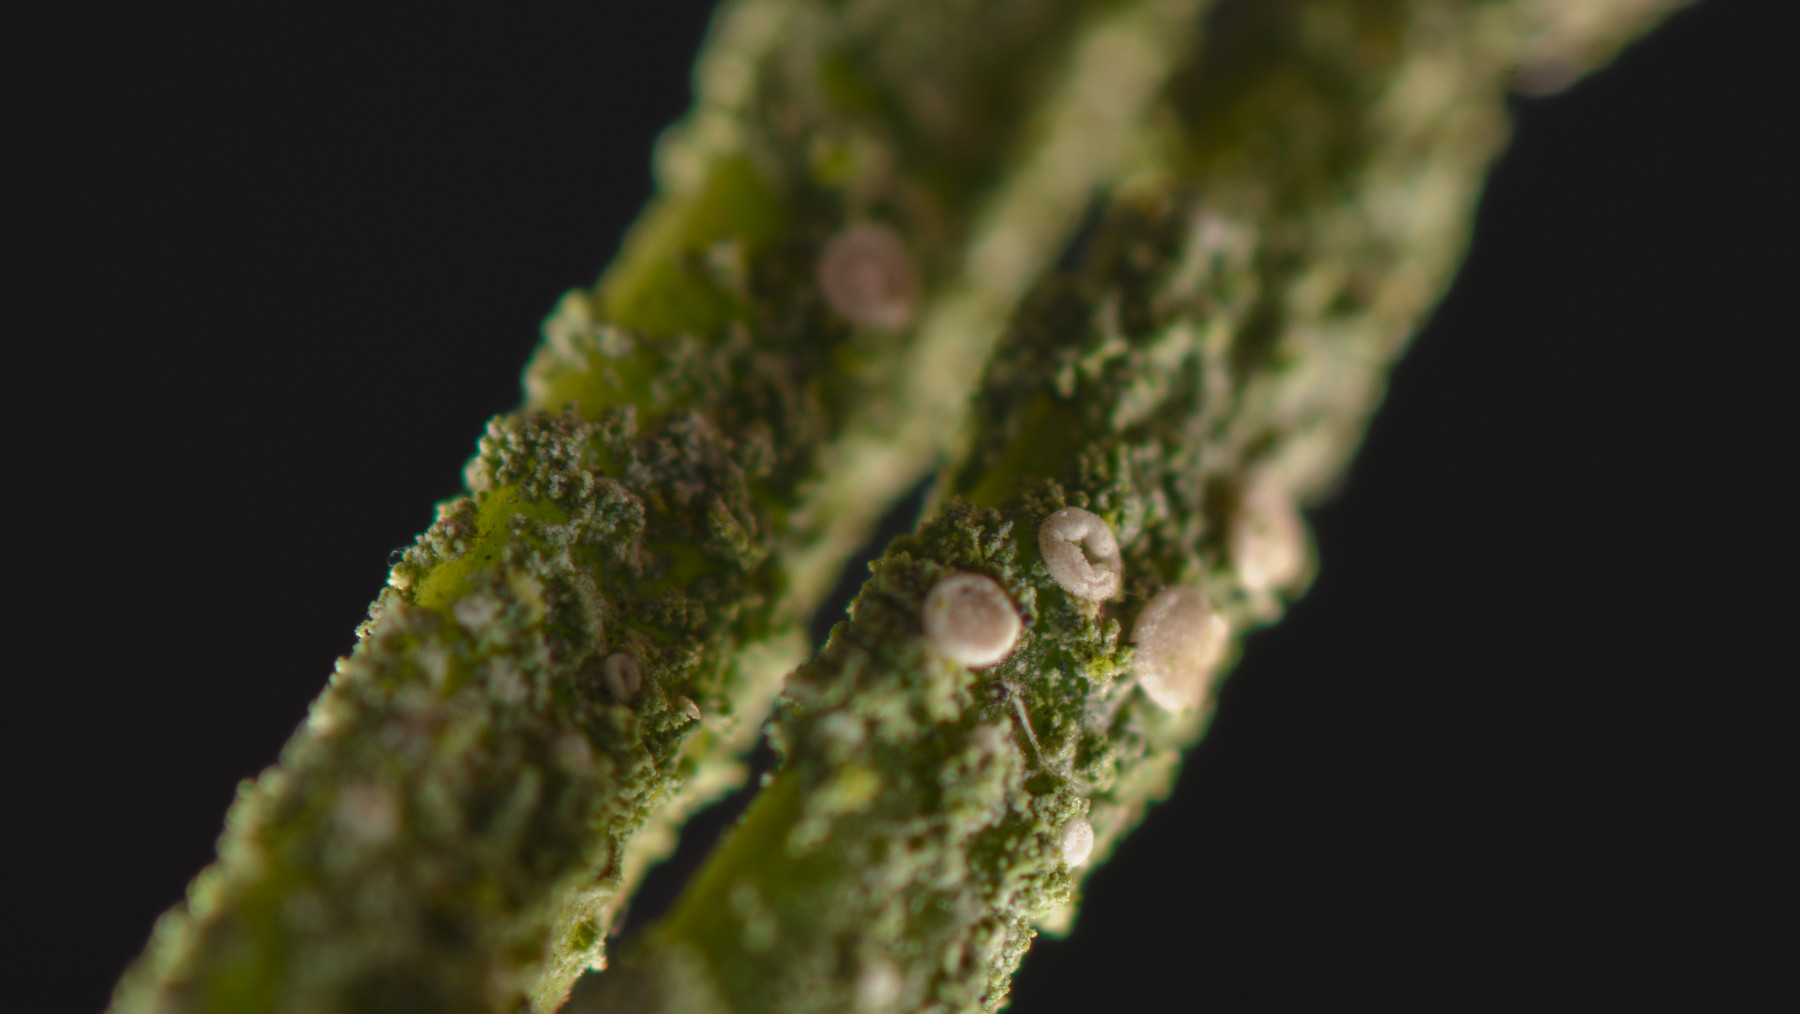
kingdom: Fungi
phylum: Ascomycota
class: Lecanoromycetes
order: Lecanorales
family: Byssolomataceae
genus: Fellhanera
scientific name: Fellhanera subtilis
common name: nåle-tallerkenlav
